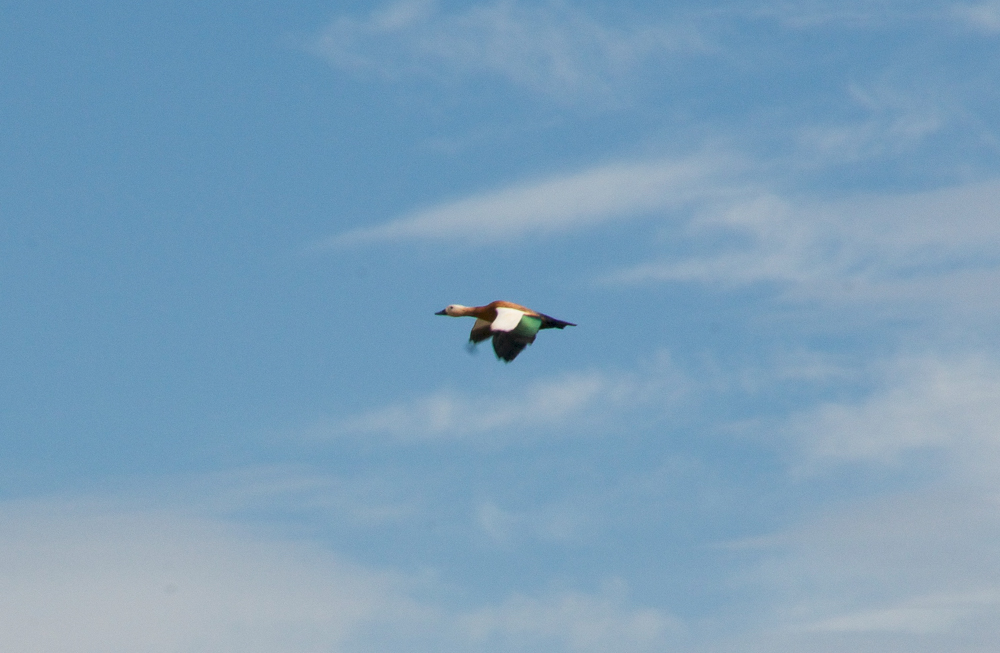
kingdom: Animalia
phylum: Chordata
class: Aves
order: Anseriformes
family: Anatidae
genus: Tadorna
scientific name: Tadorna ferruginea
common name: Ruddy shelduck
